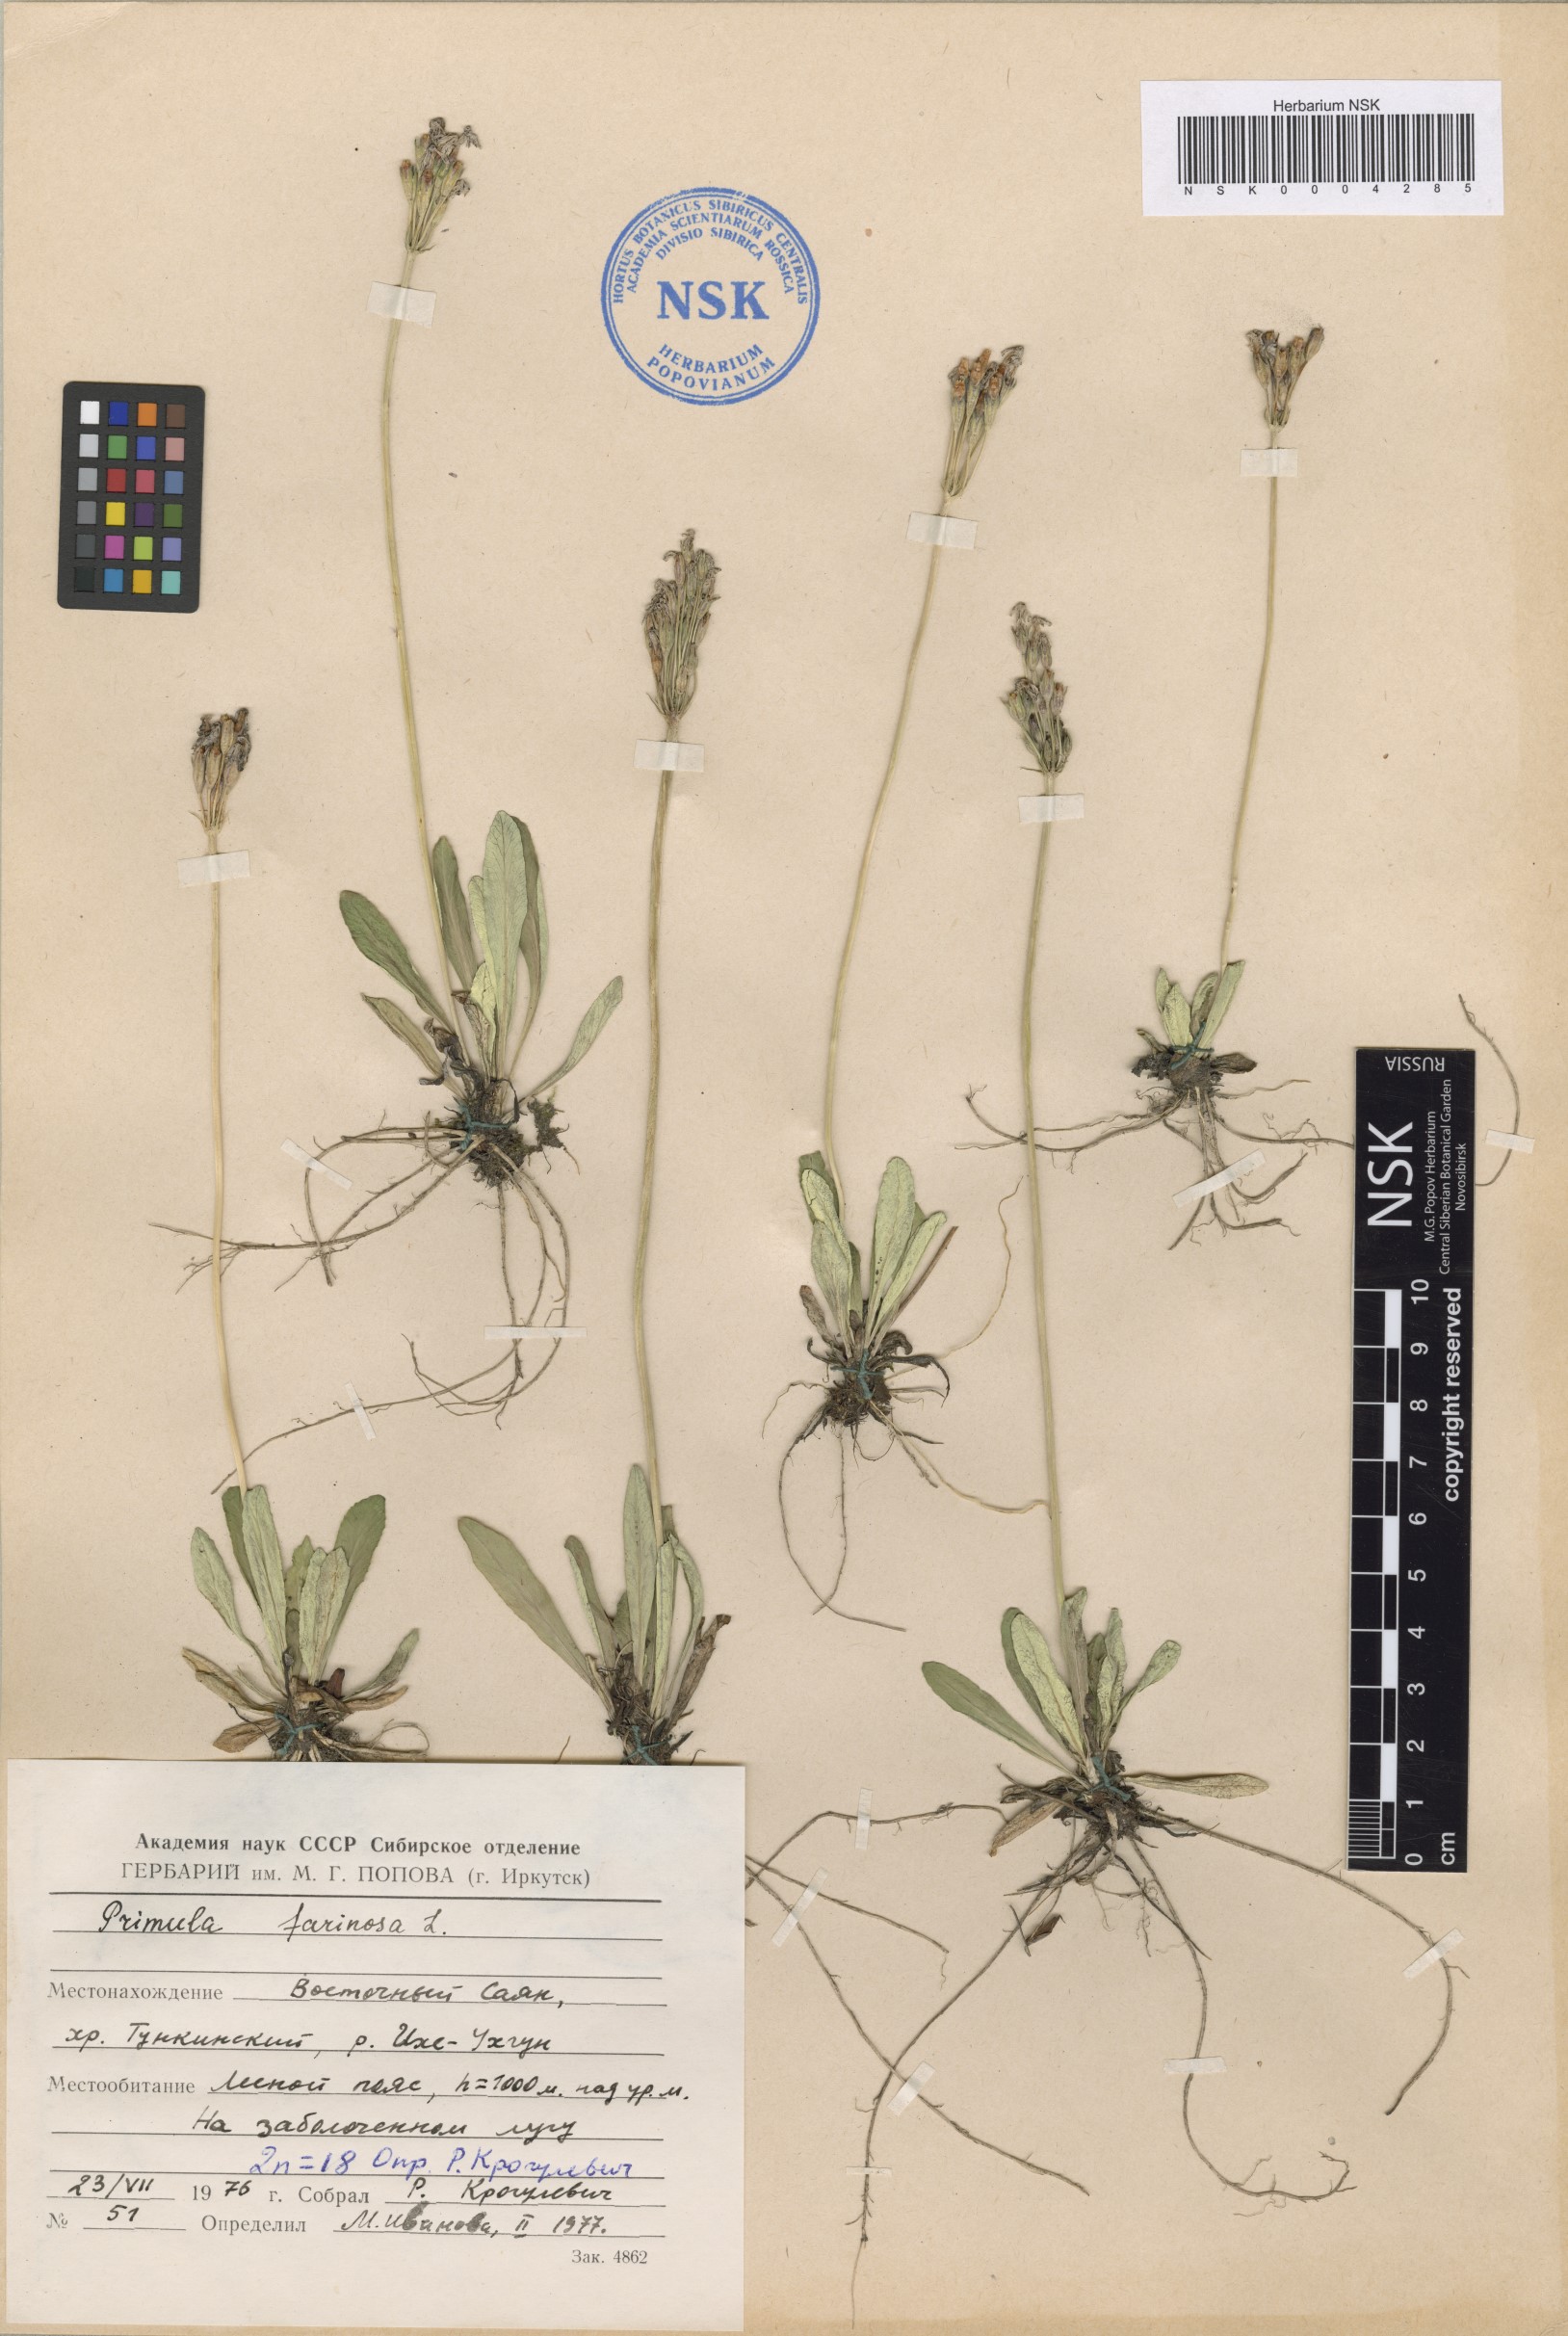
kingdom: Plantae
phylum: Tracheophyta
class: Magnoliopsida
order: Ericales
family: Primulaceae
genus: Primula
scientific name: Primula farinosa
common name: Bird's-eye primrose
